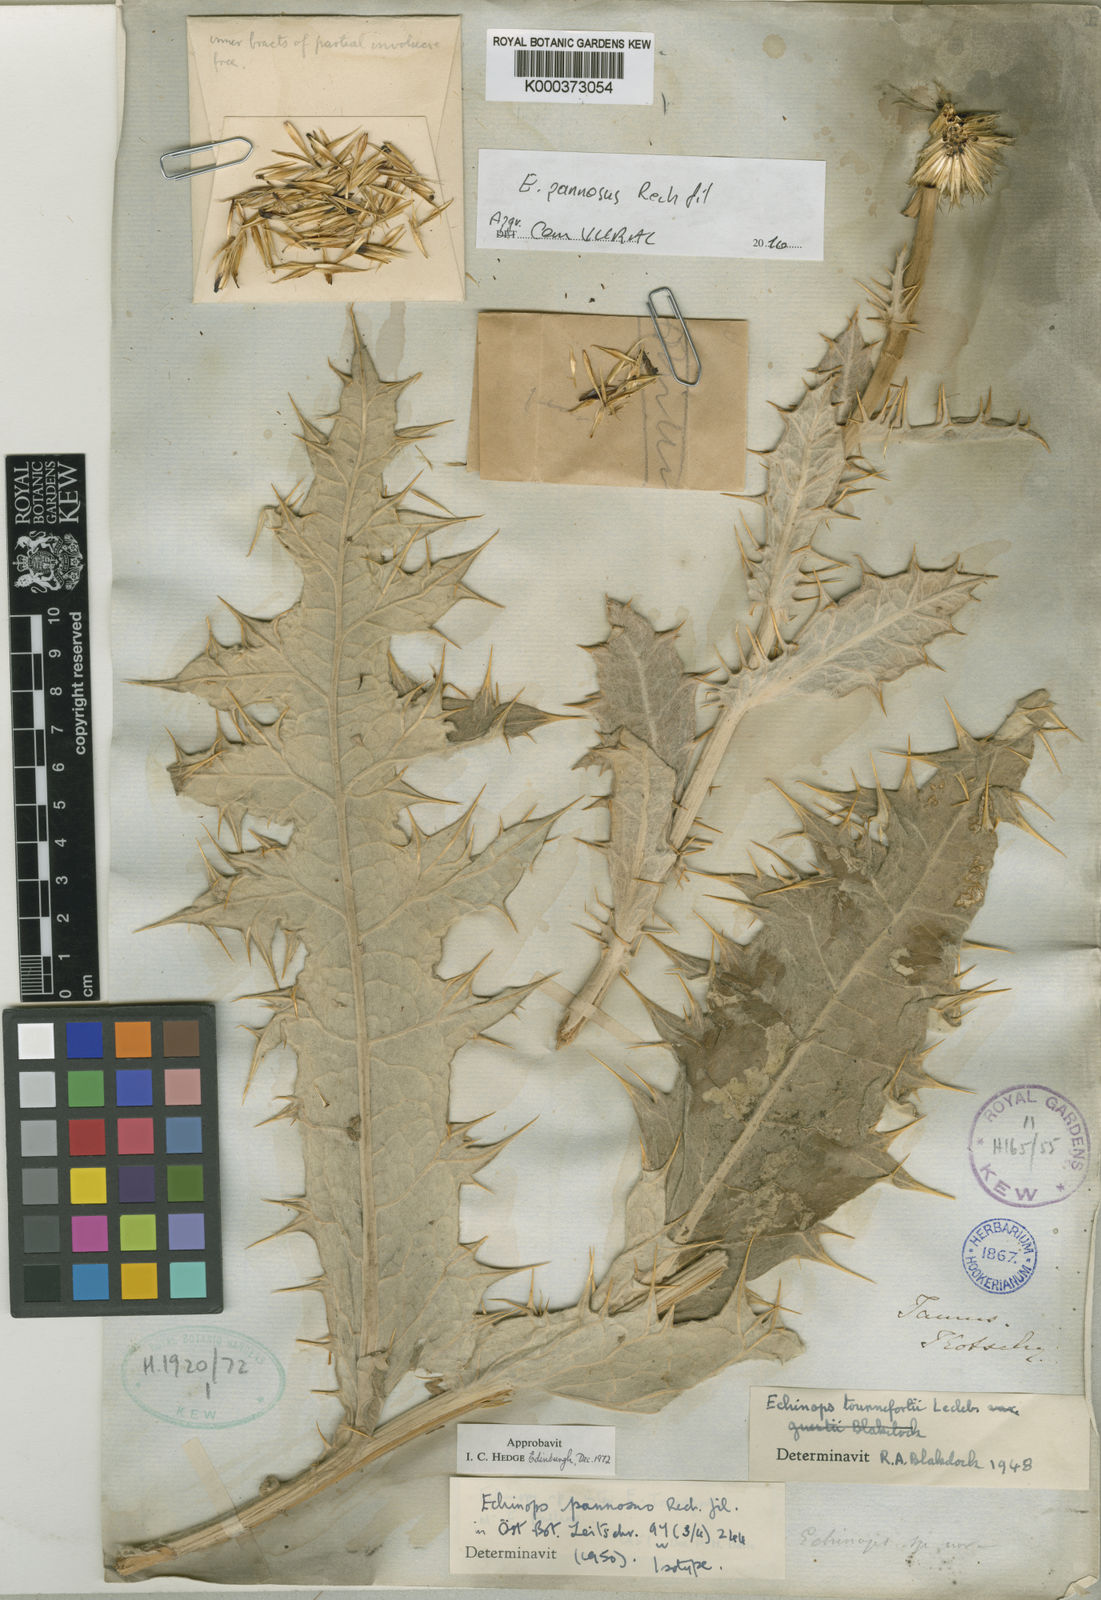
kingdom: Plantae
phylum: Tracheophyta
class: Magnoliopsida
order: Asterales
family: Asteraceae
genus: Echinops
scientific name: Echinops pannosus
